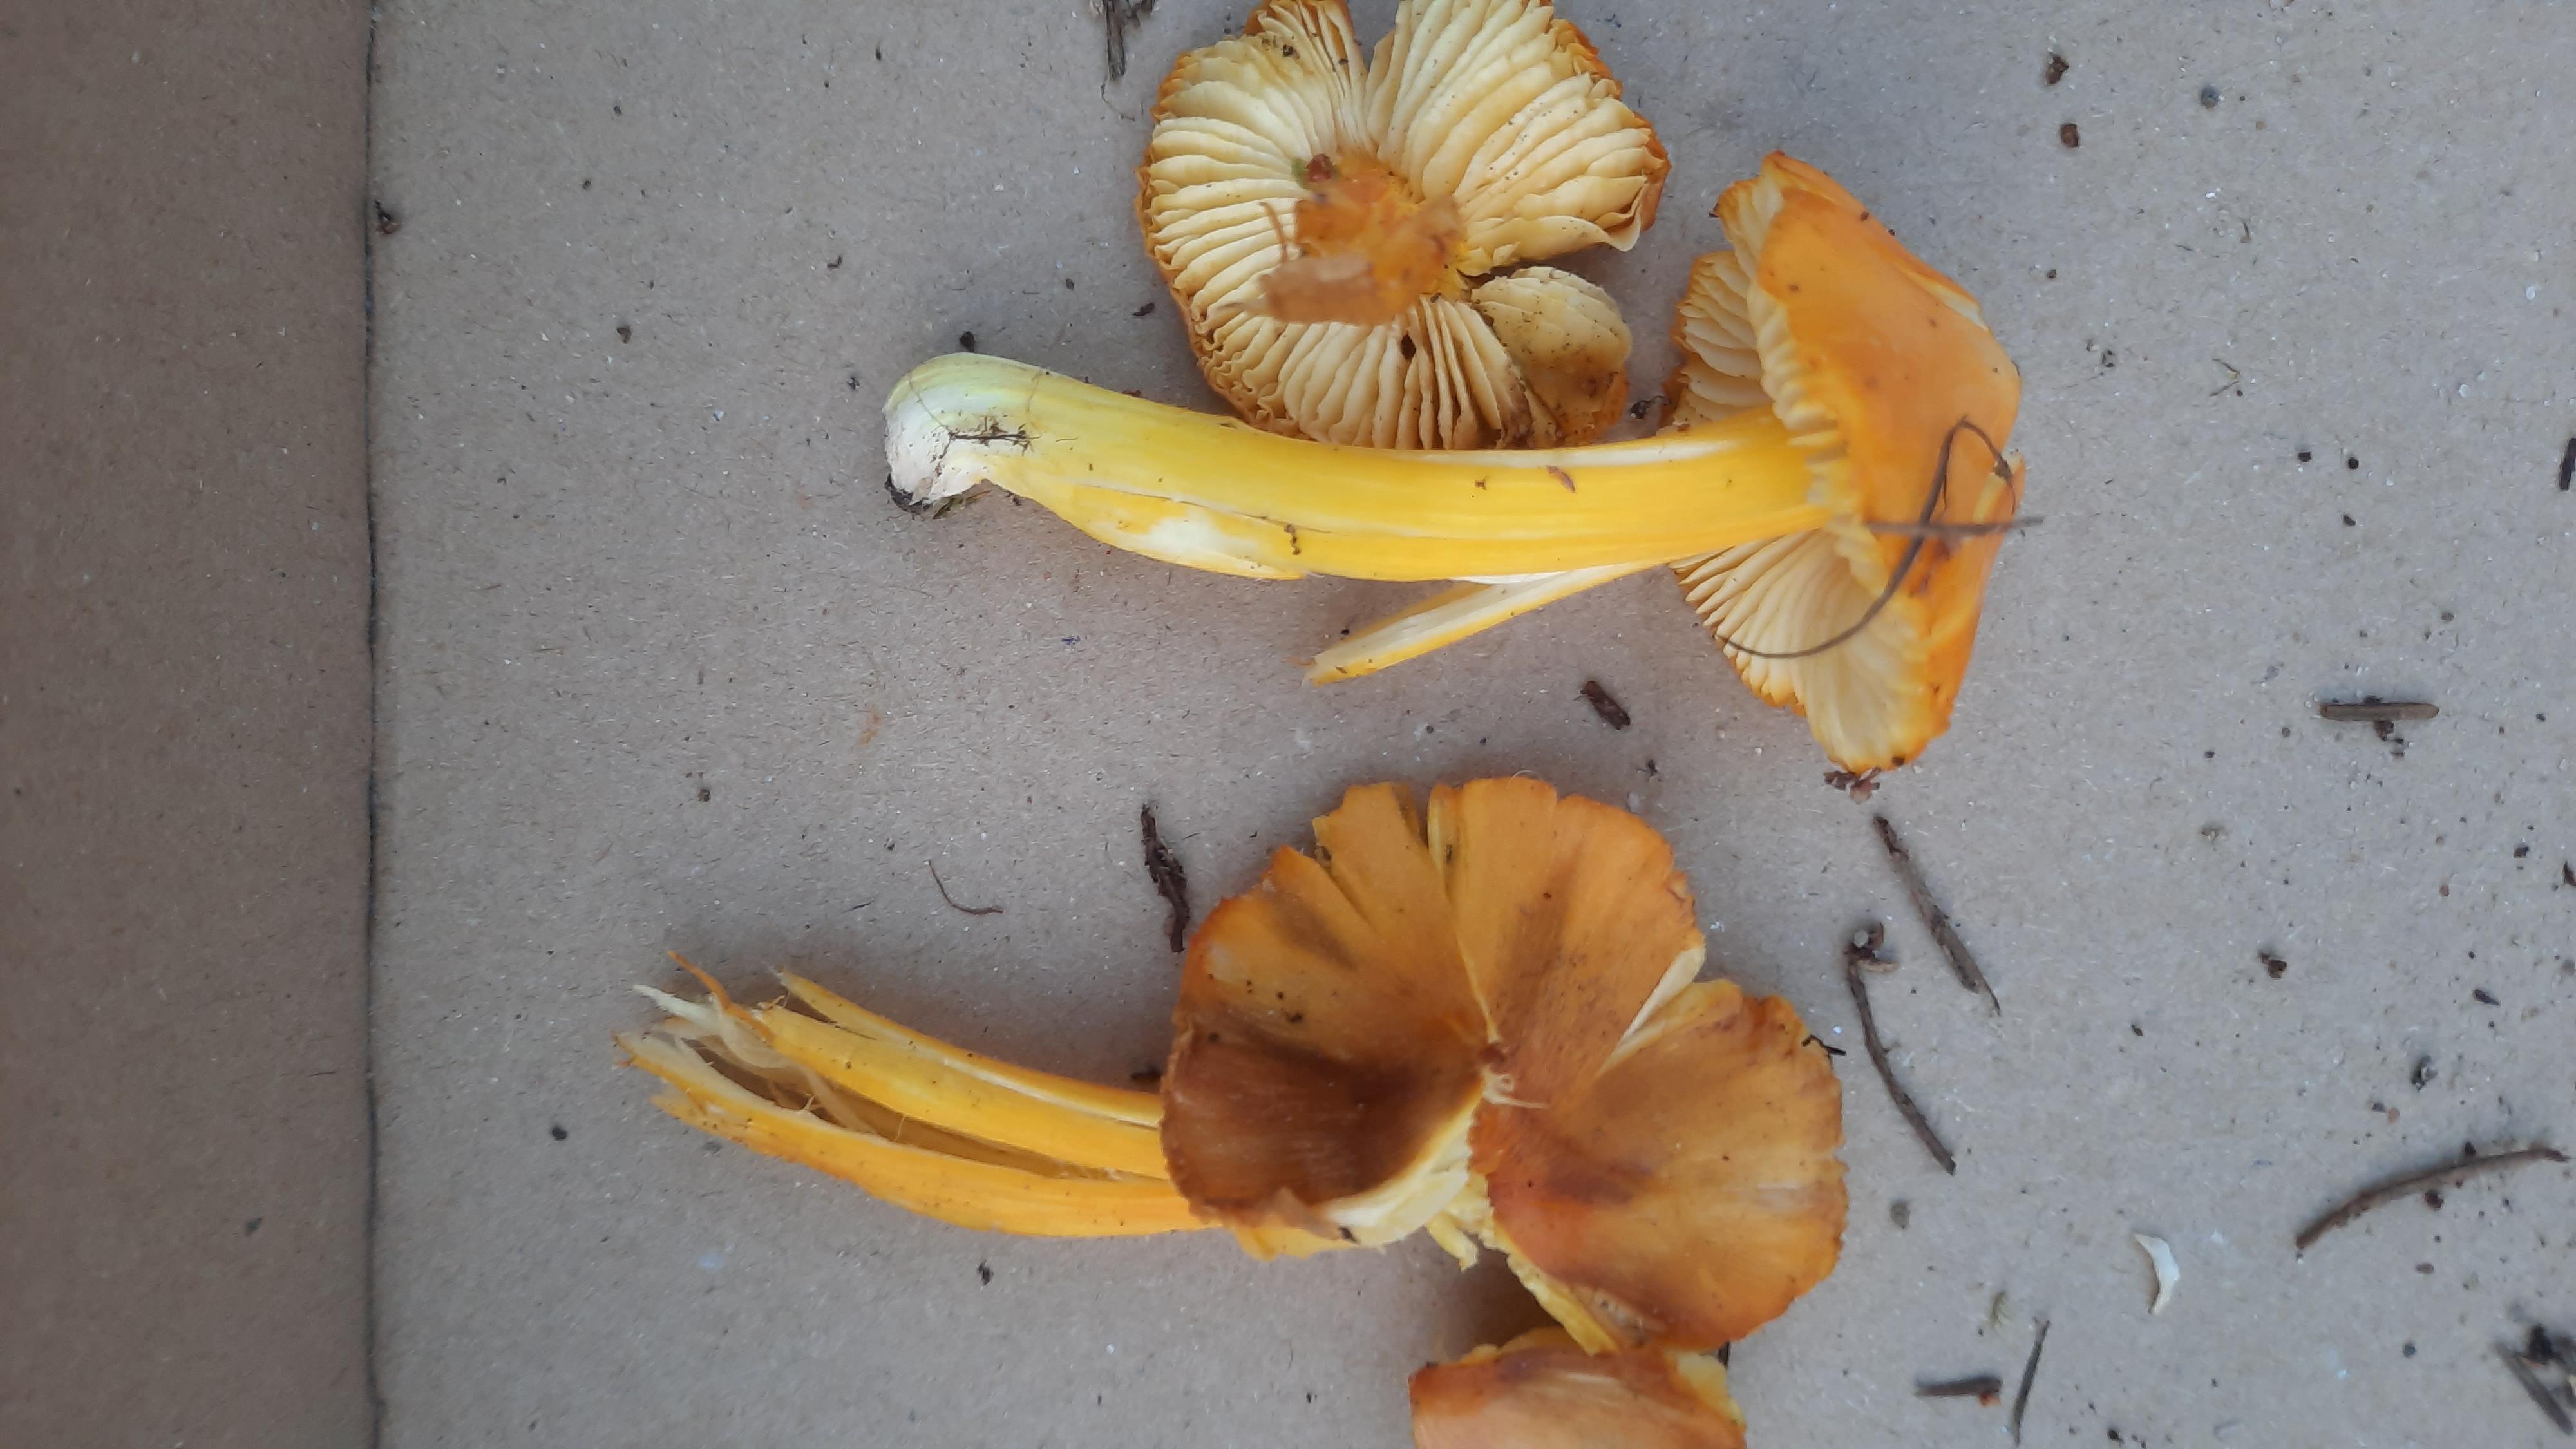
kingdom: Fungi
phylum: Basidiomycota
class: Agaricomycetes
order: Agaricales
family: Hygrophoraceae
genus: Hygrocybe
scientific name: Hygrocybe
